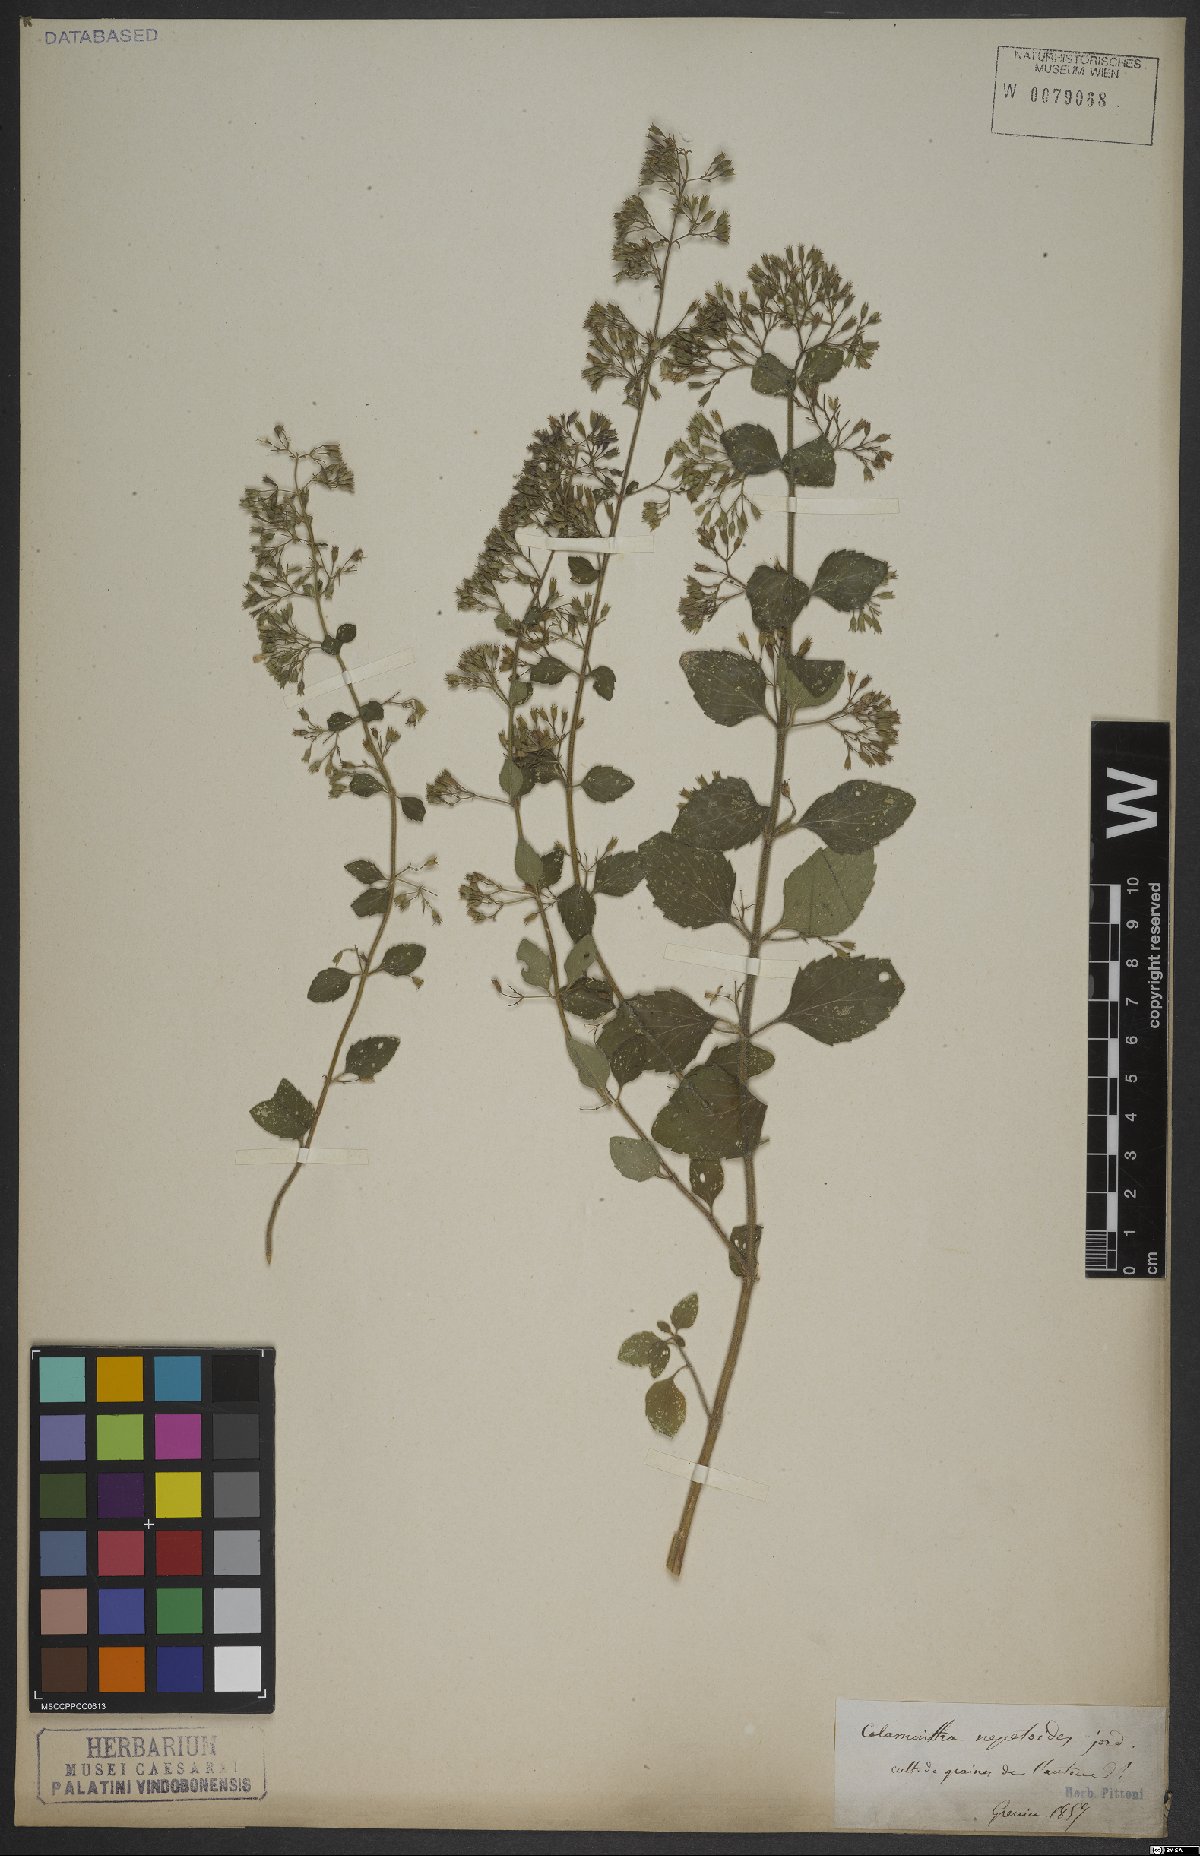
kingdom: Plantae
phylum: Tracheophyta
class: Magnoliopsida
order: Lamiales
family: Lamiaceae
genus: Clinopodium
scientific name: Clinopodium nepeta
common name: Lesser calamint
